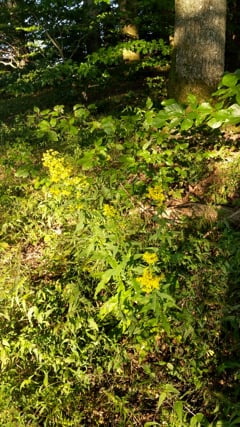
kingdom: Animalia
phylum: Arthropoda
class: Insecta
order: Orthoptera
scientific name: Orthoptera
